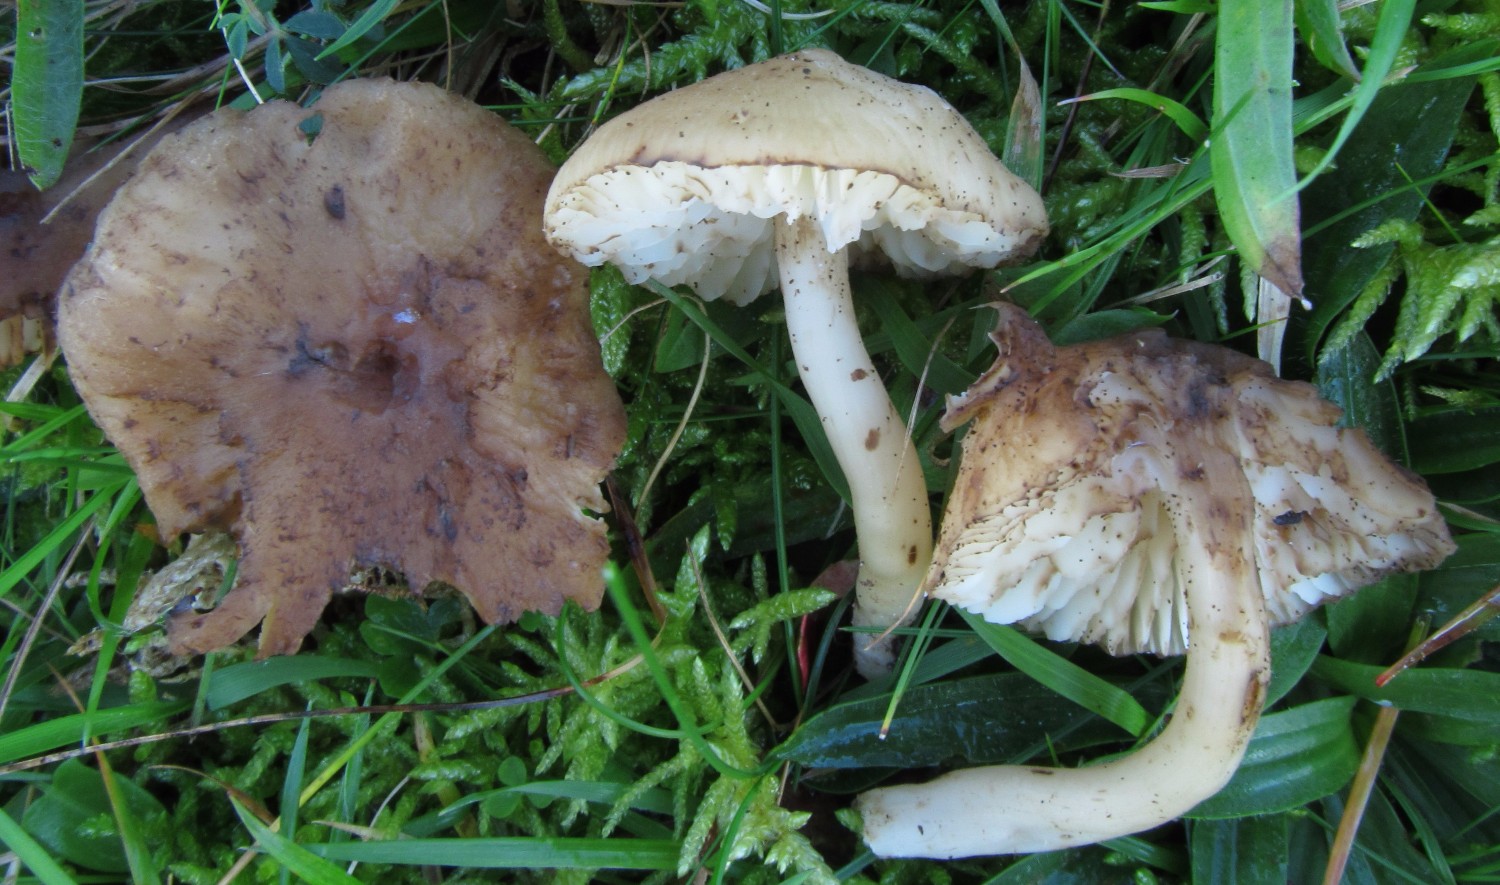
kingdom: Fungi
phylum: Basidiomycota
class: Agaricomycetes
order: Agaricales
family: Hygrophoraceae
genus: Hygrocybe
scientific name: Hygrocybe ingrata
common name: Jensens vokshat
